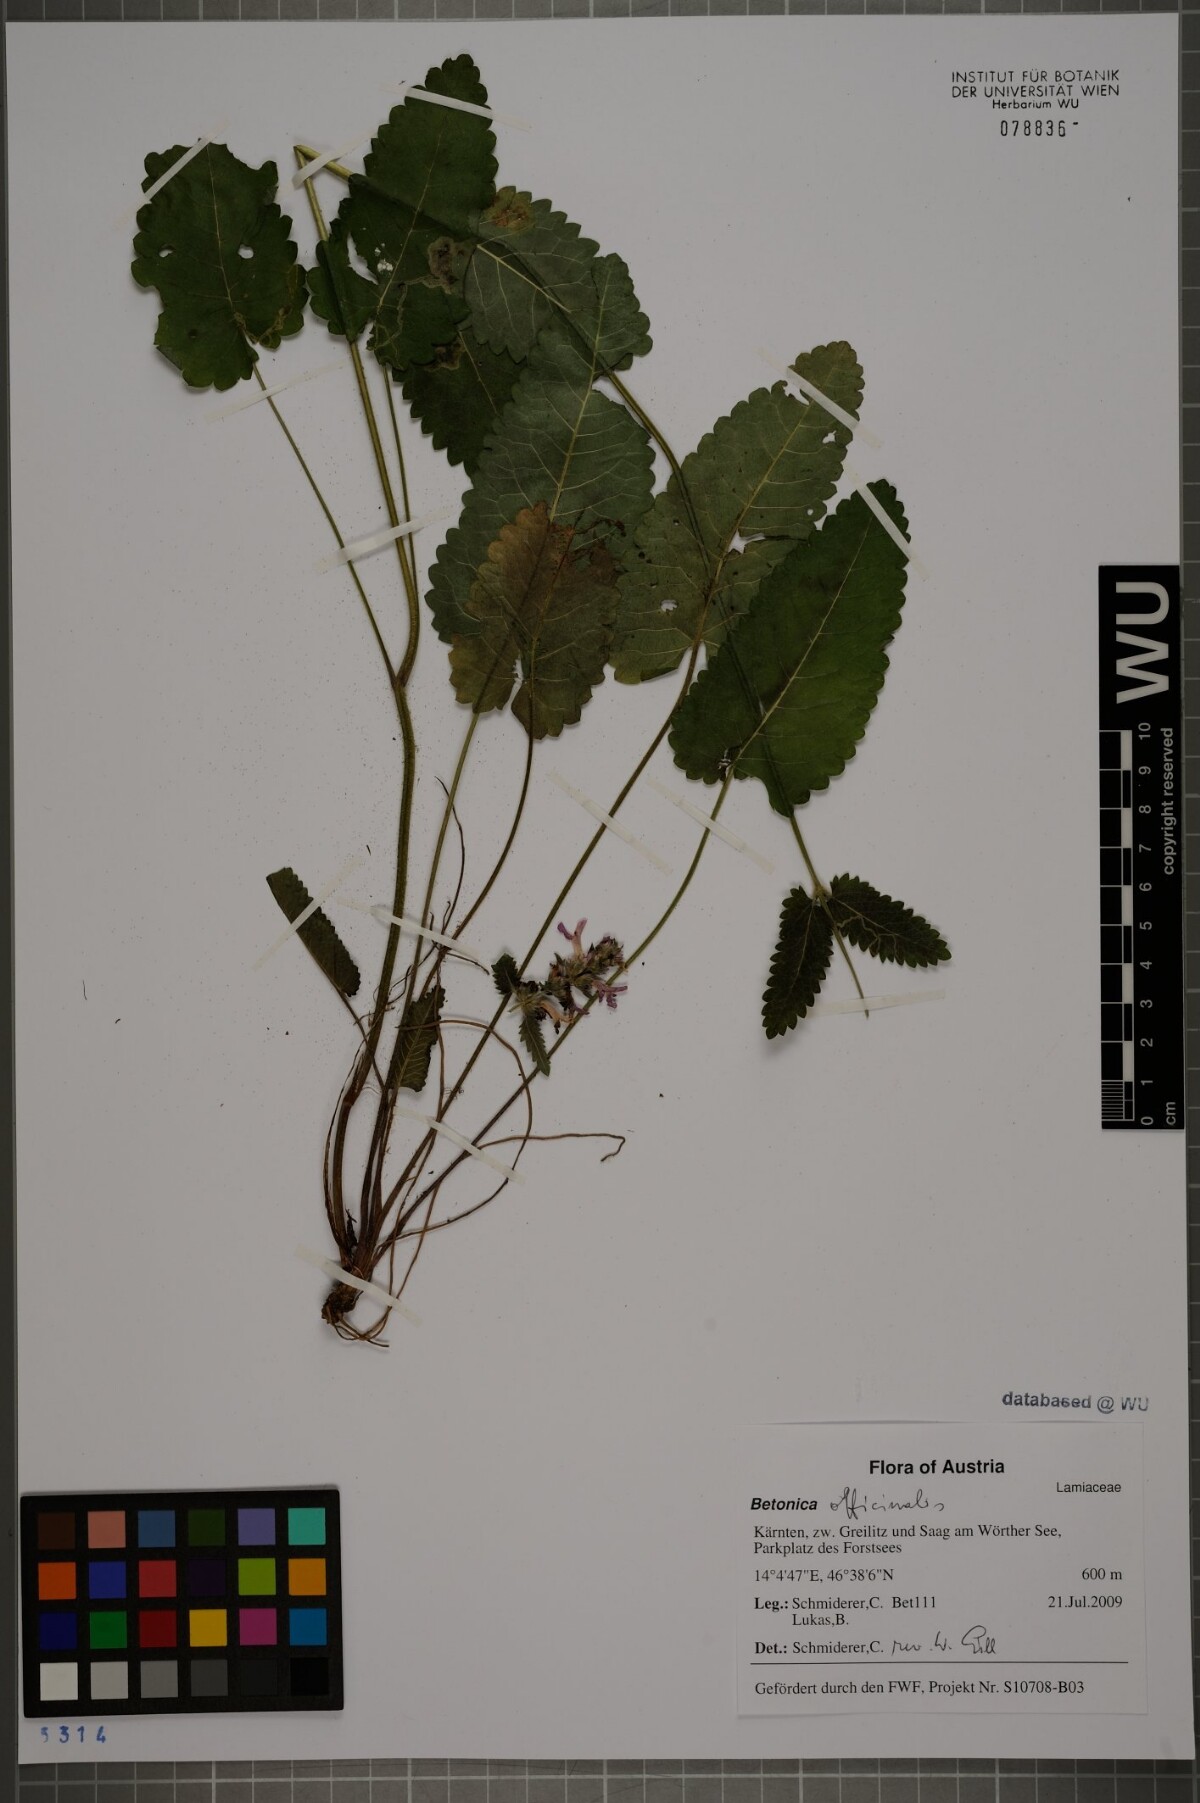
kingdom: Plantae
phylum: Tracheophyta
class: Magnoliopsida
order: Lamiales
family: Lamiaceae
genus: Betonica
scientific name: Betonica officinalis
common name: Bishop's-wort
